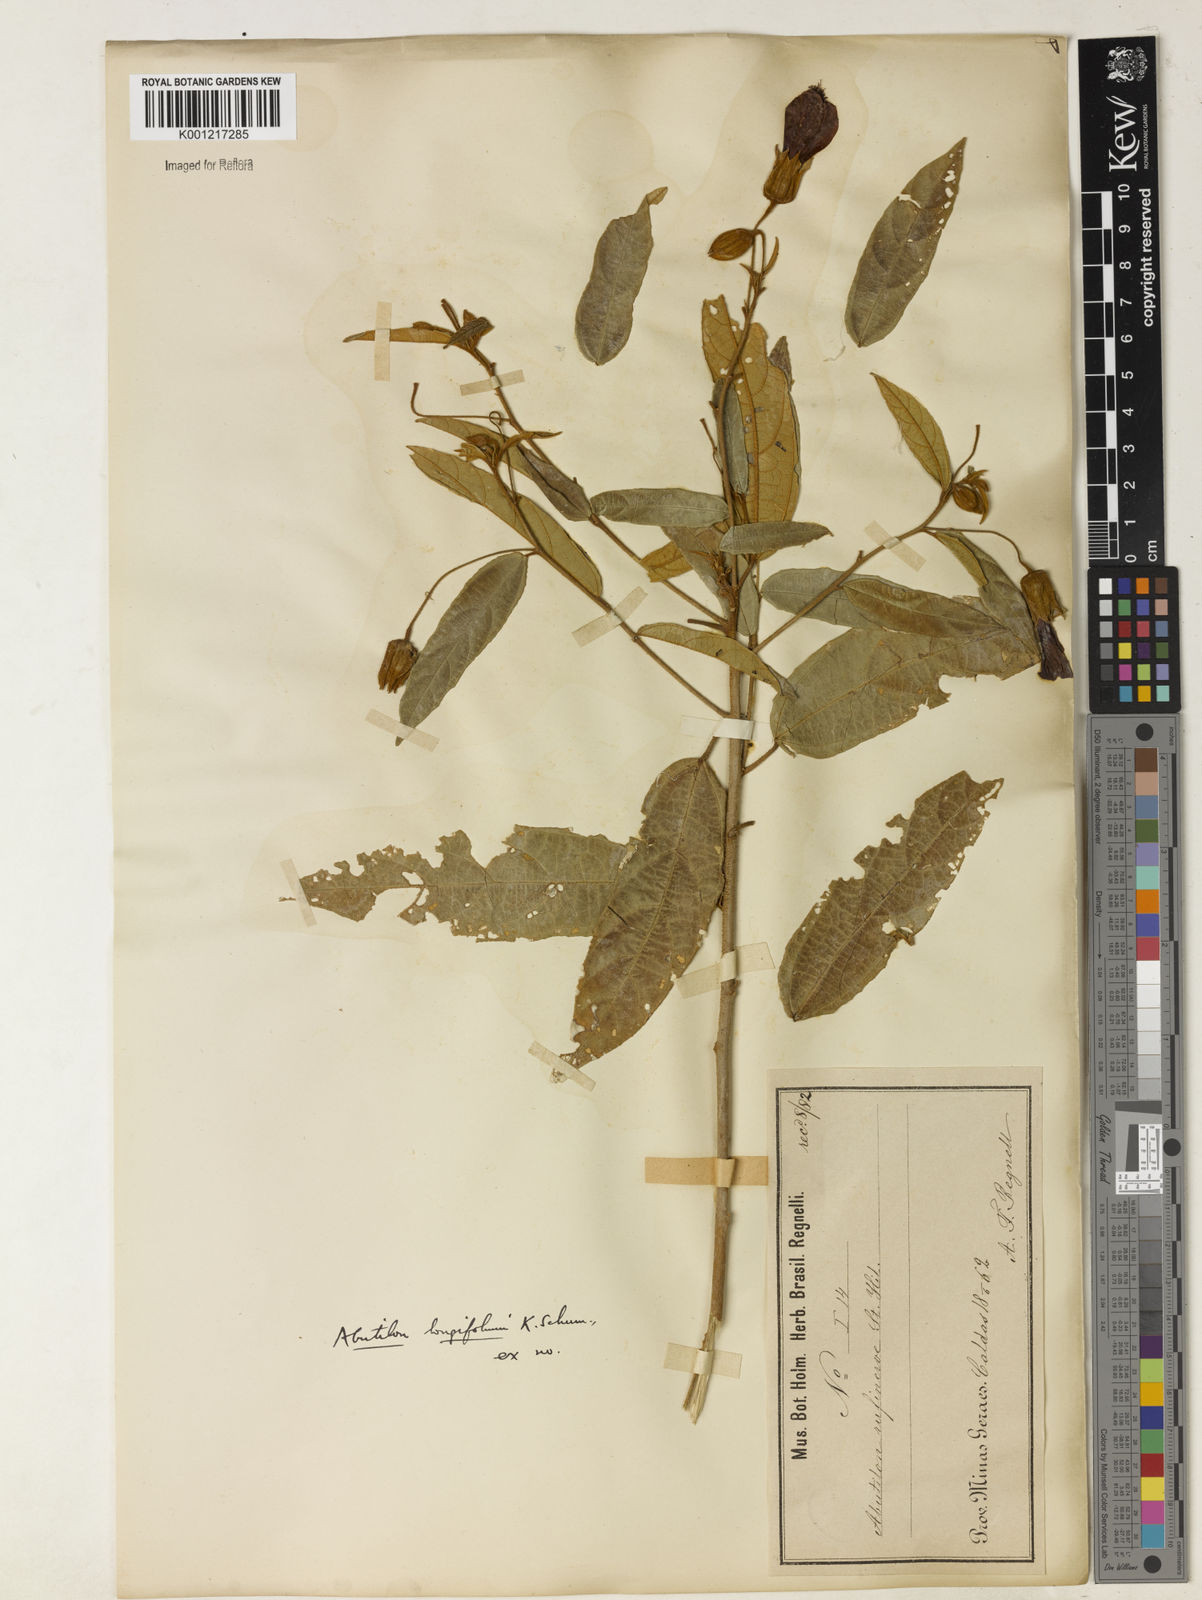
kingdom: Plantae
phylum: Tracheophyta
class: Magnoliopsida
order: Malvales
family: Malvaceae
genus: Callianthe
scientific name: Callianthe longifolia
